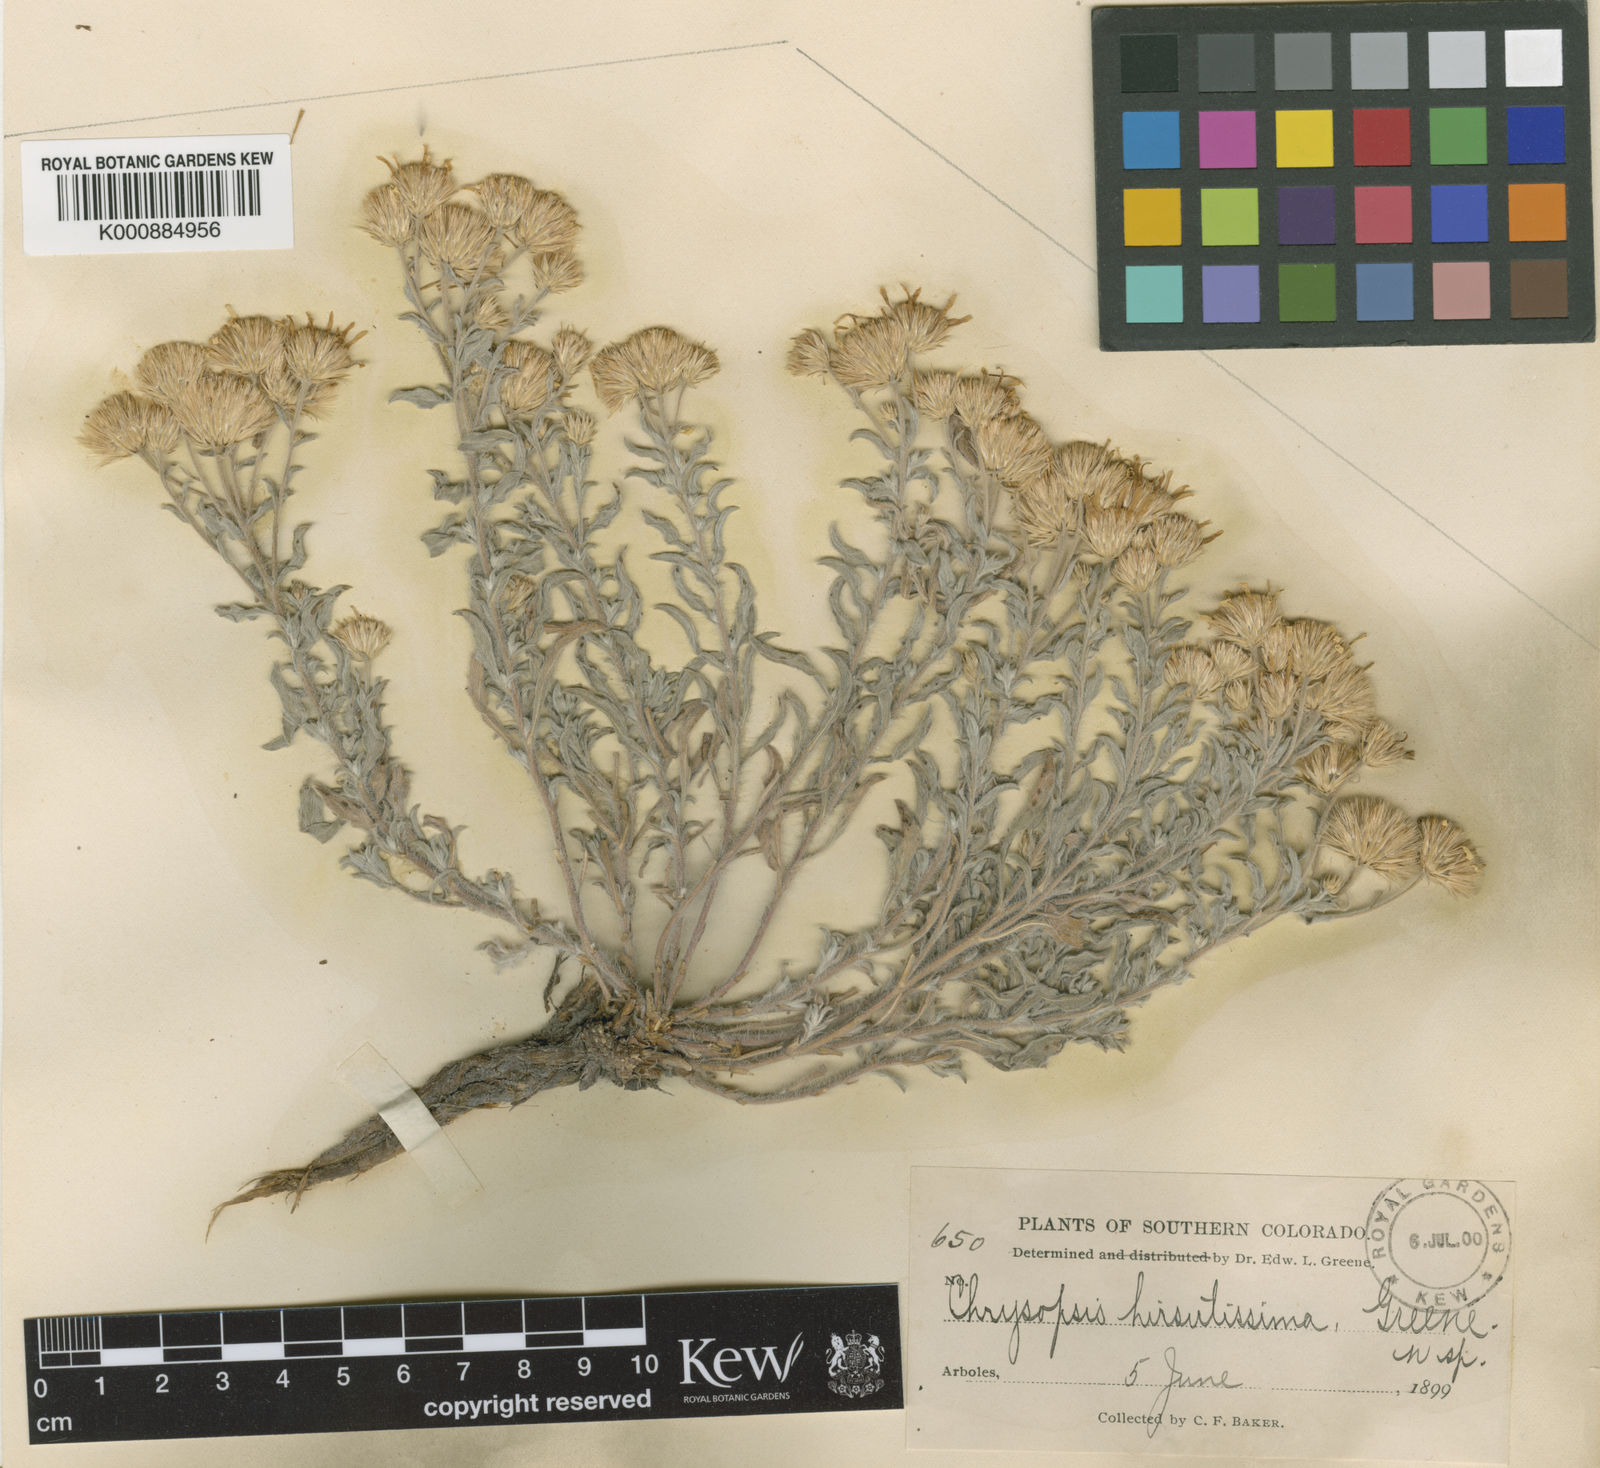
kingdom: Plantae
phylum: Tracheophyta
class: Magnoliopsida
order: Asterales
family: Asteraceae
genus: Heterotheca
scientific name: Heterotheca
